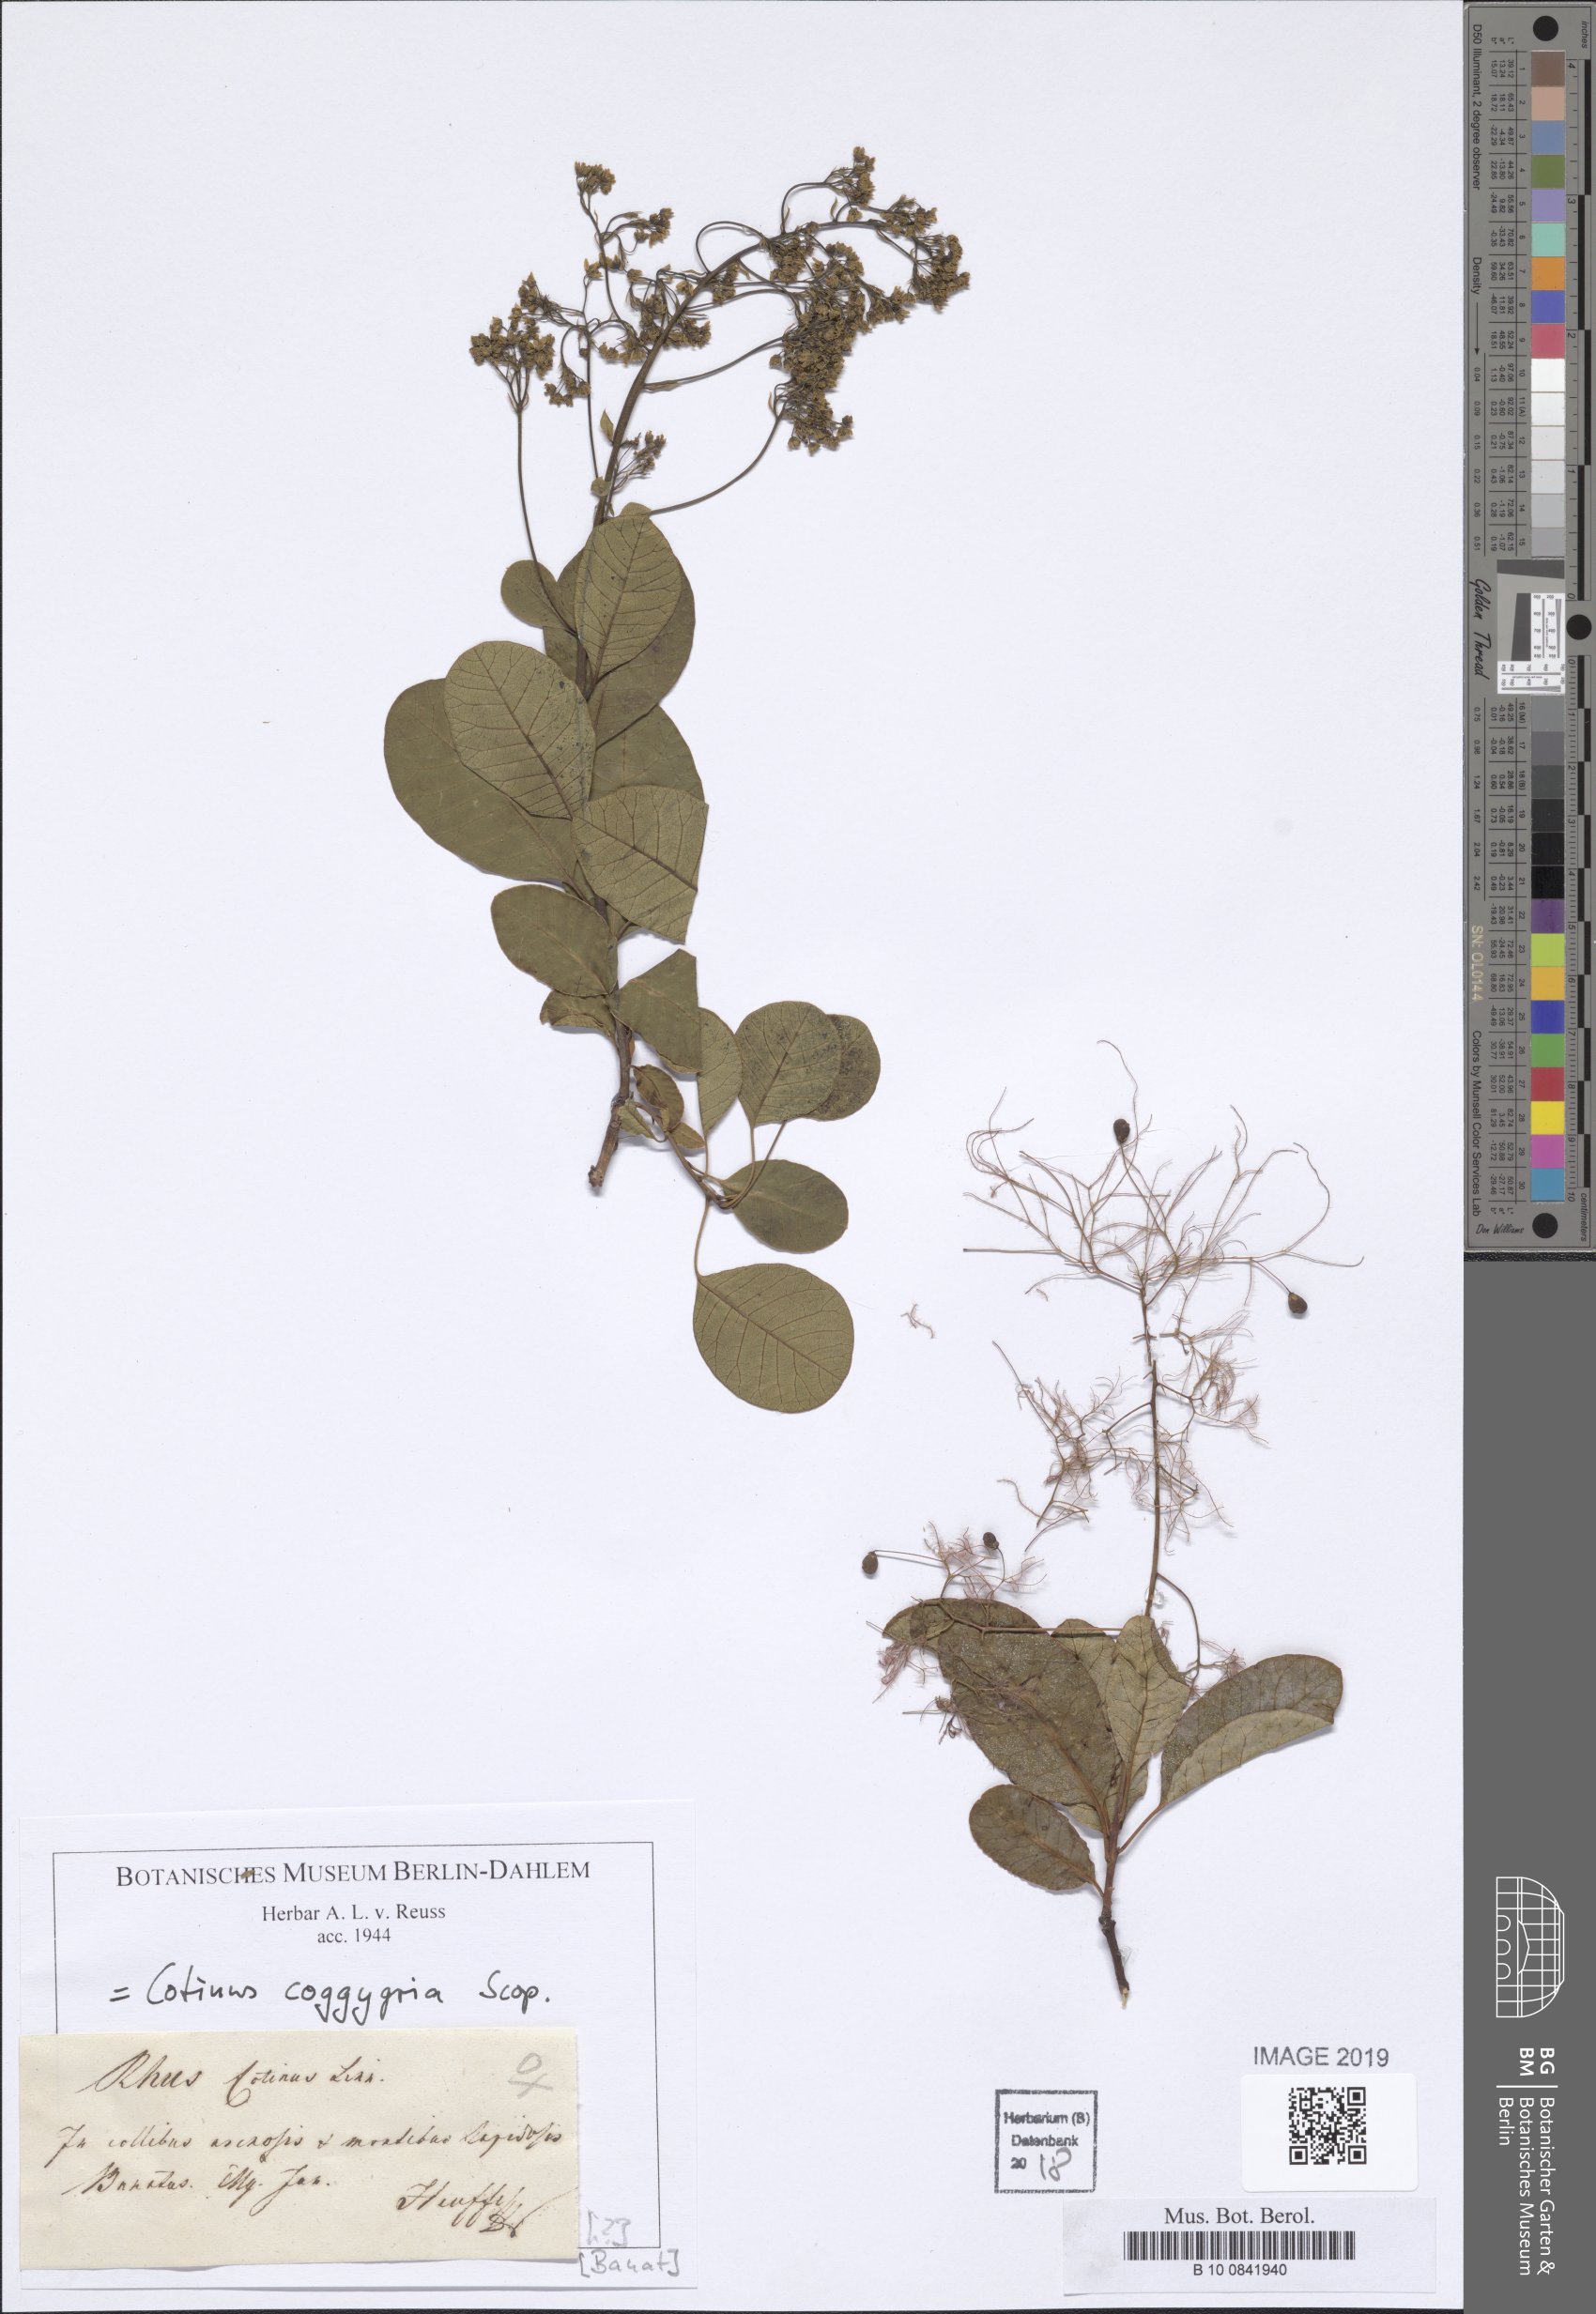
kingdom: Plantae
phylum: Tracheophyta
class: Magnoliopsida
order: Sapindales
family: Anacardiaceae
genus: Cotinus
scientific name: Cotinus coggygria
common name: Smoke-tree
